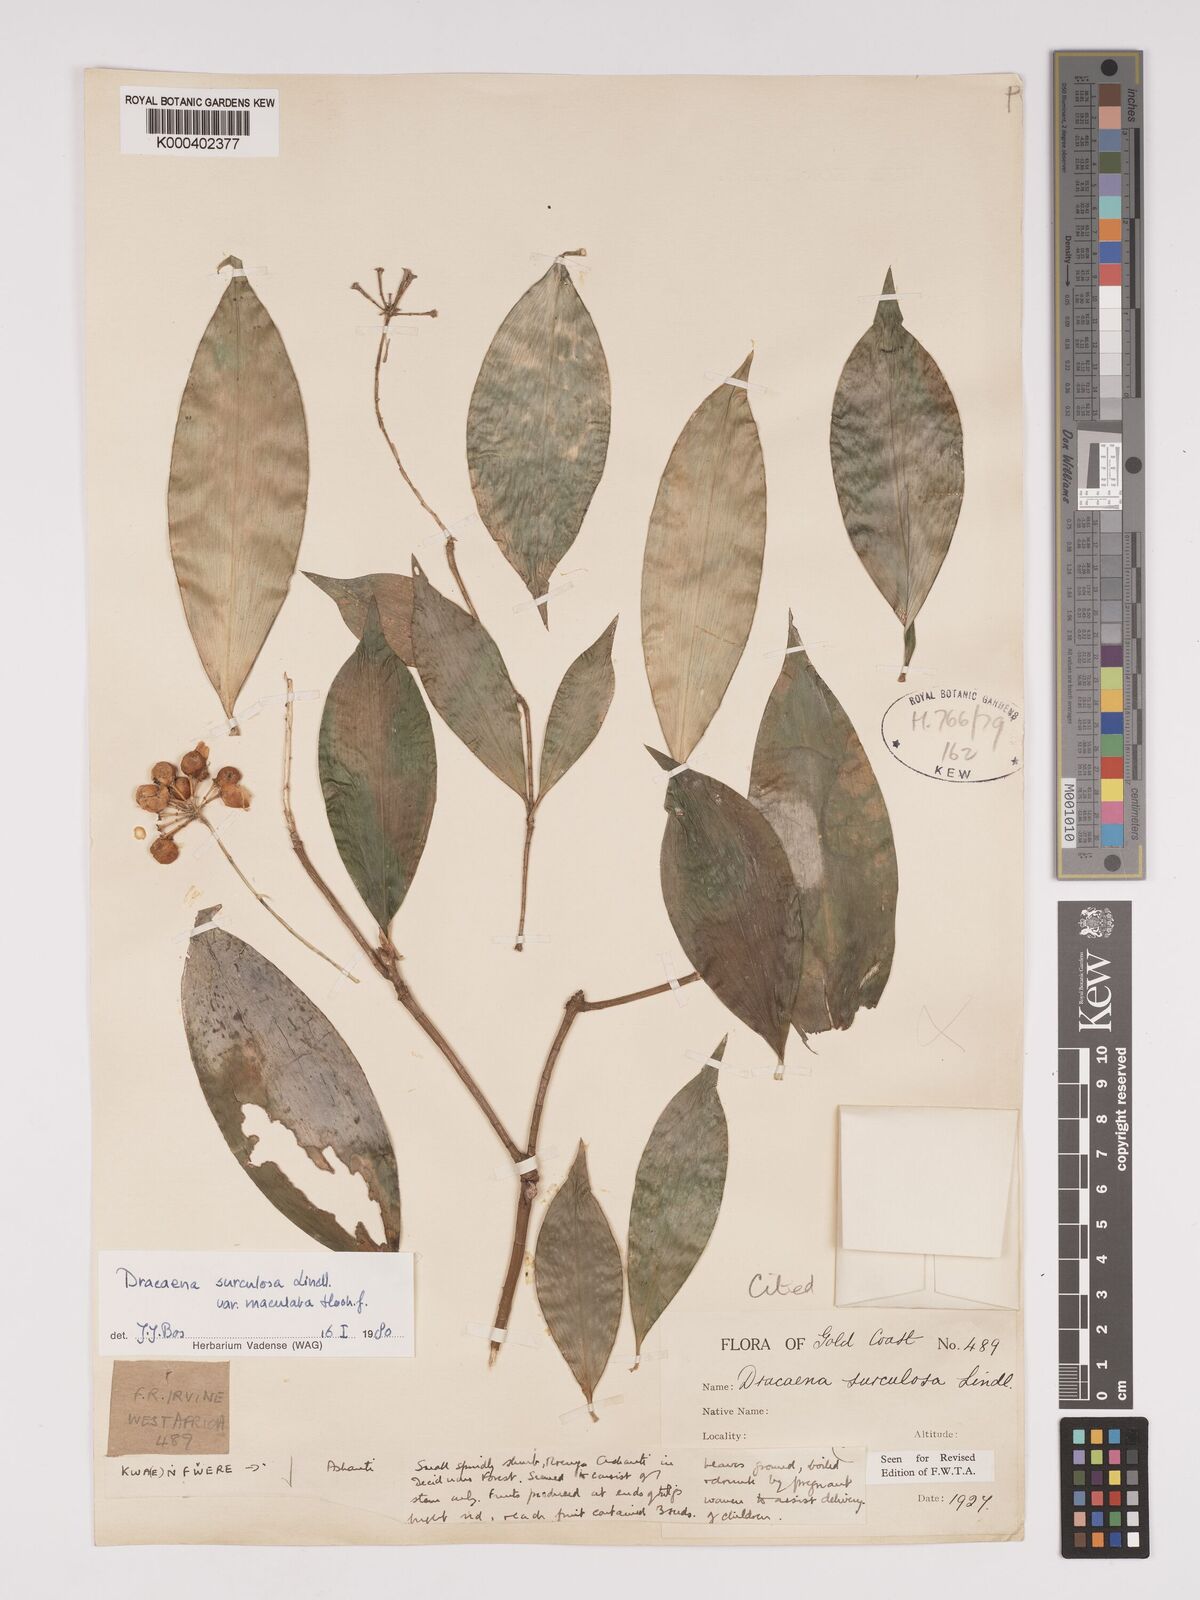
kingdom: Plantae
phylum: Tracheophyta
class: Liliopsida
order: Asparagales
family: Asparagaceae
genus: Dracaena
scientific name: Dracaena surculosa
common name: Spotted dracaena
